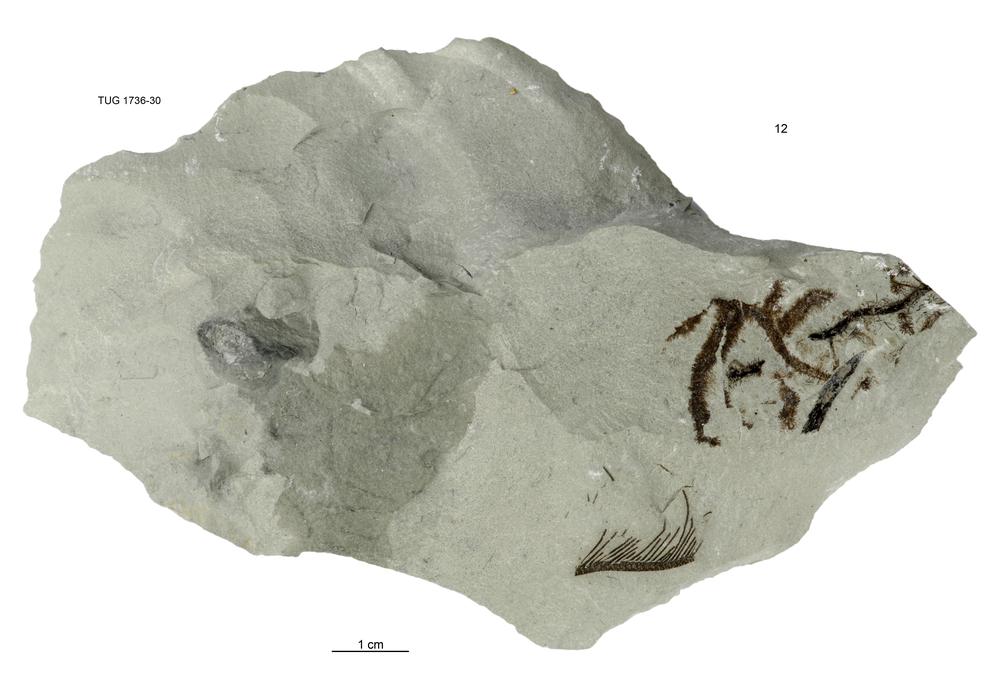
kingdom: Animalia
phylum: Echinodermata
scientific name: Echinodermata
